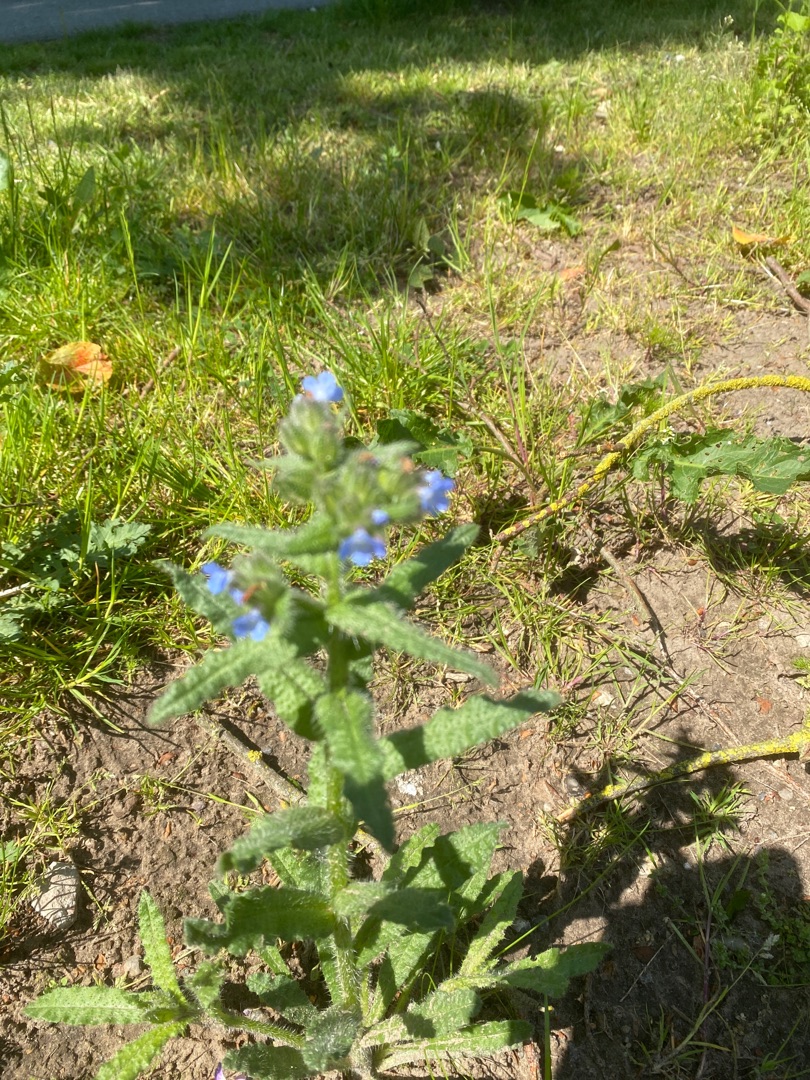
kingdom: Plantae
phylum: Tracheophyta
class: Magnoliopsida
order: Boraginales
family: Boraginaceae
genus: Lycopsis
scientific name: Lycopsis arvensis
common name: Krumhals
